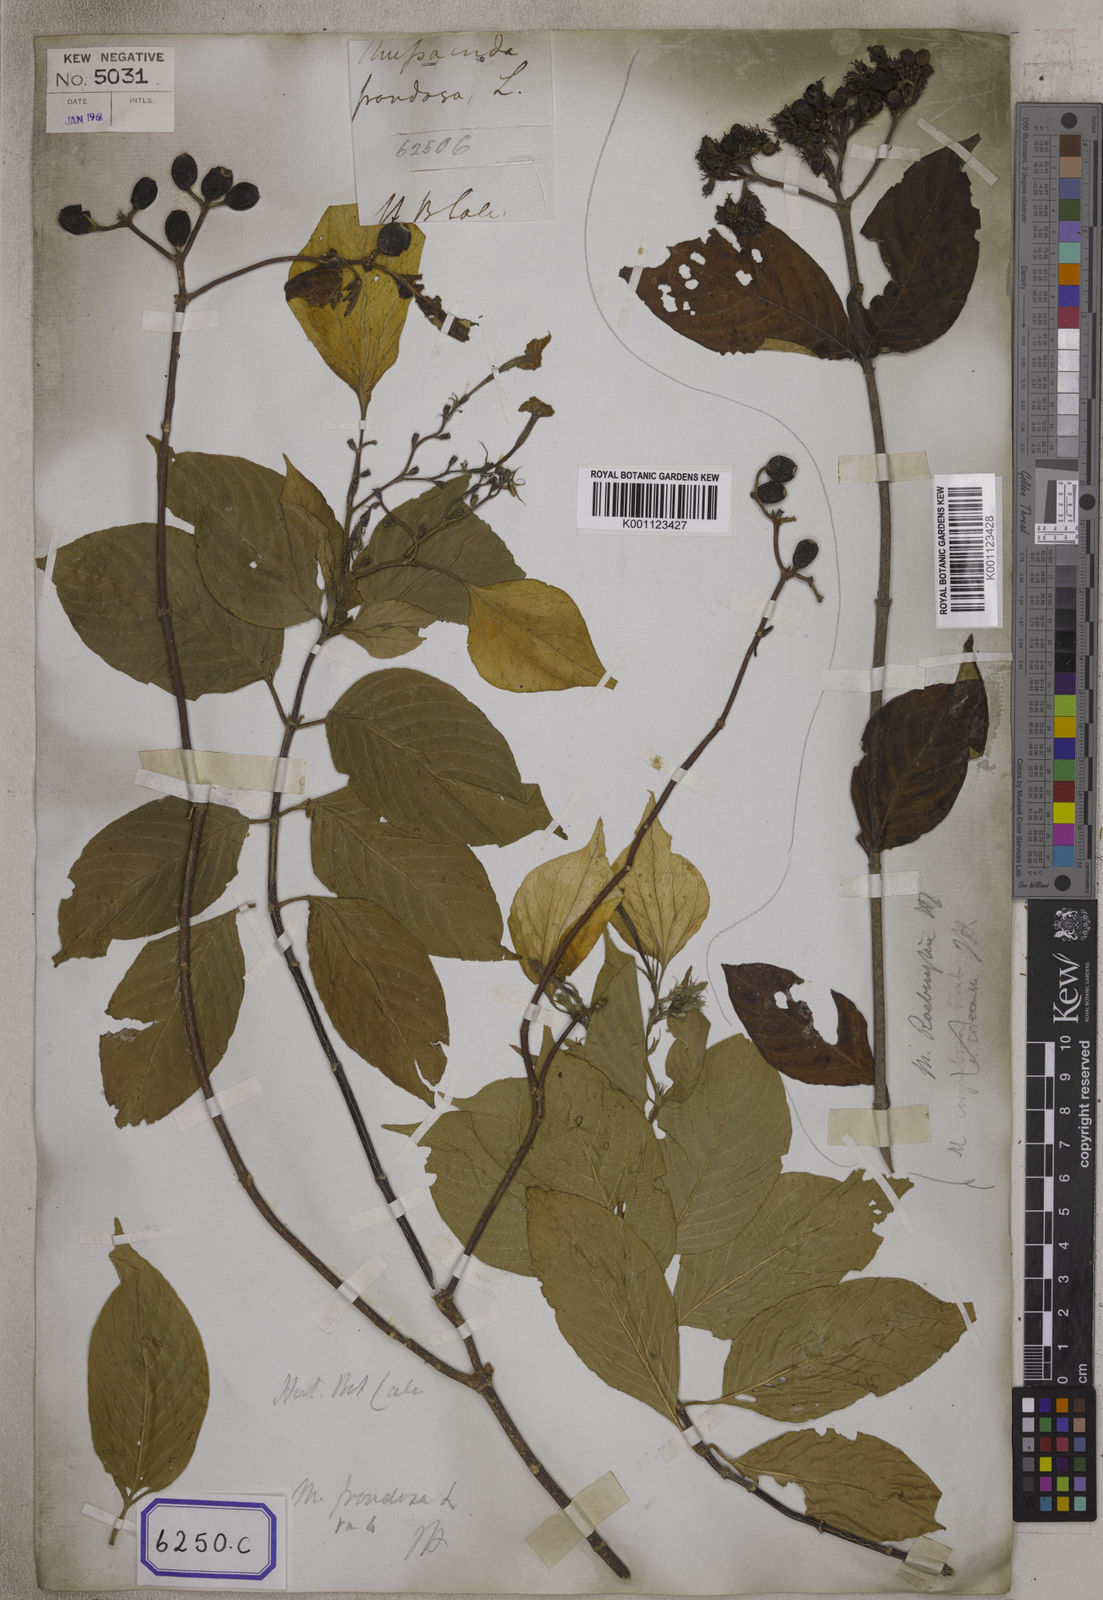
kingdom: Plantae
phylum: Tracheophyta
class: Magnoliopsida
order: Gentianales
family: Rubiaceae
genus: Mussaenda
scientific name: Mussaenda
